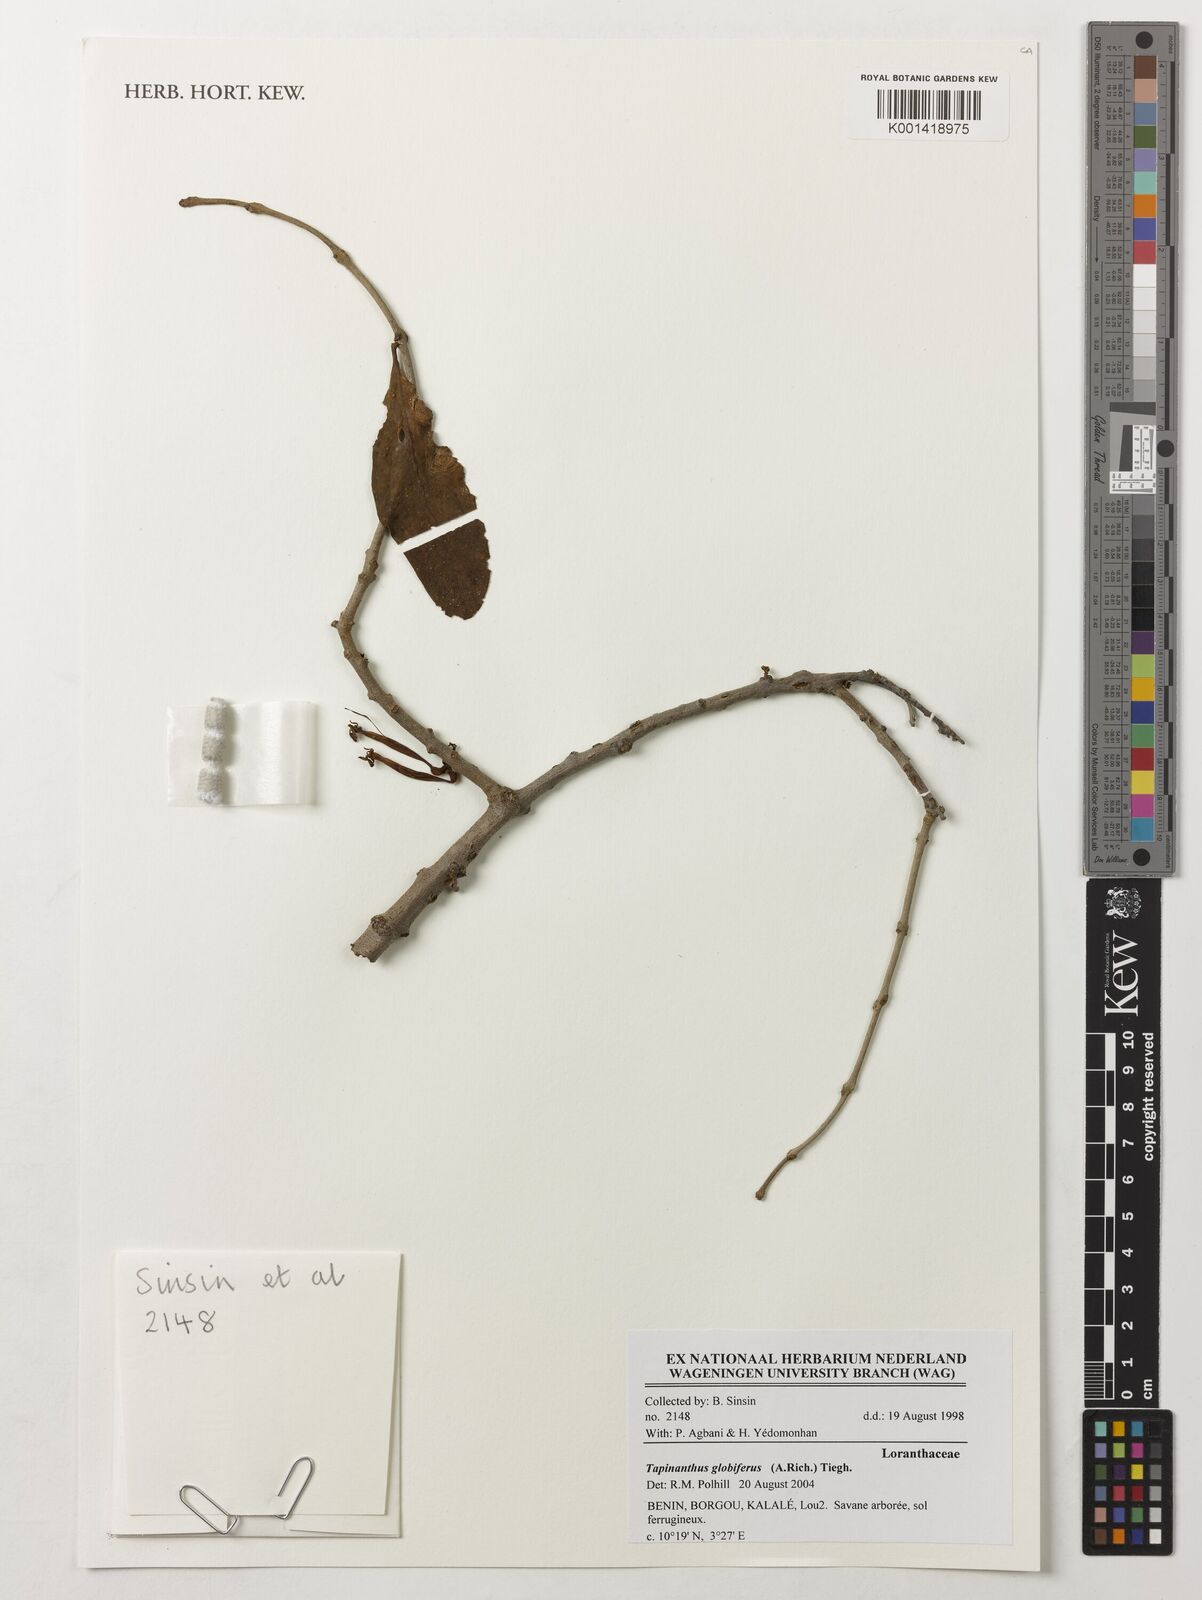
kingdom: Plantae
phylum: Tracheophyta
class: Magnoliopsida
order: Santalales
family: Loranthaceae
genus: Tapinanthus
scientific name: Tapinanthus globifer
